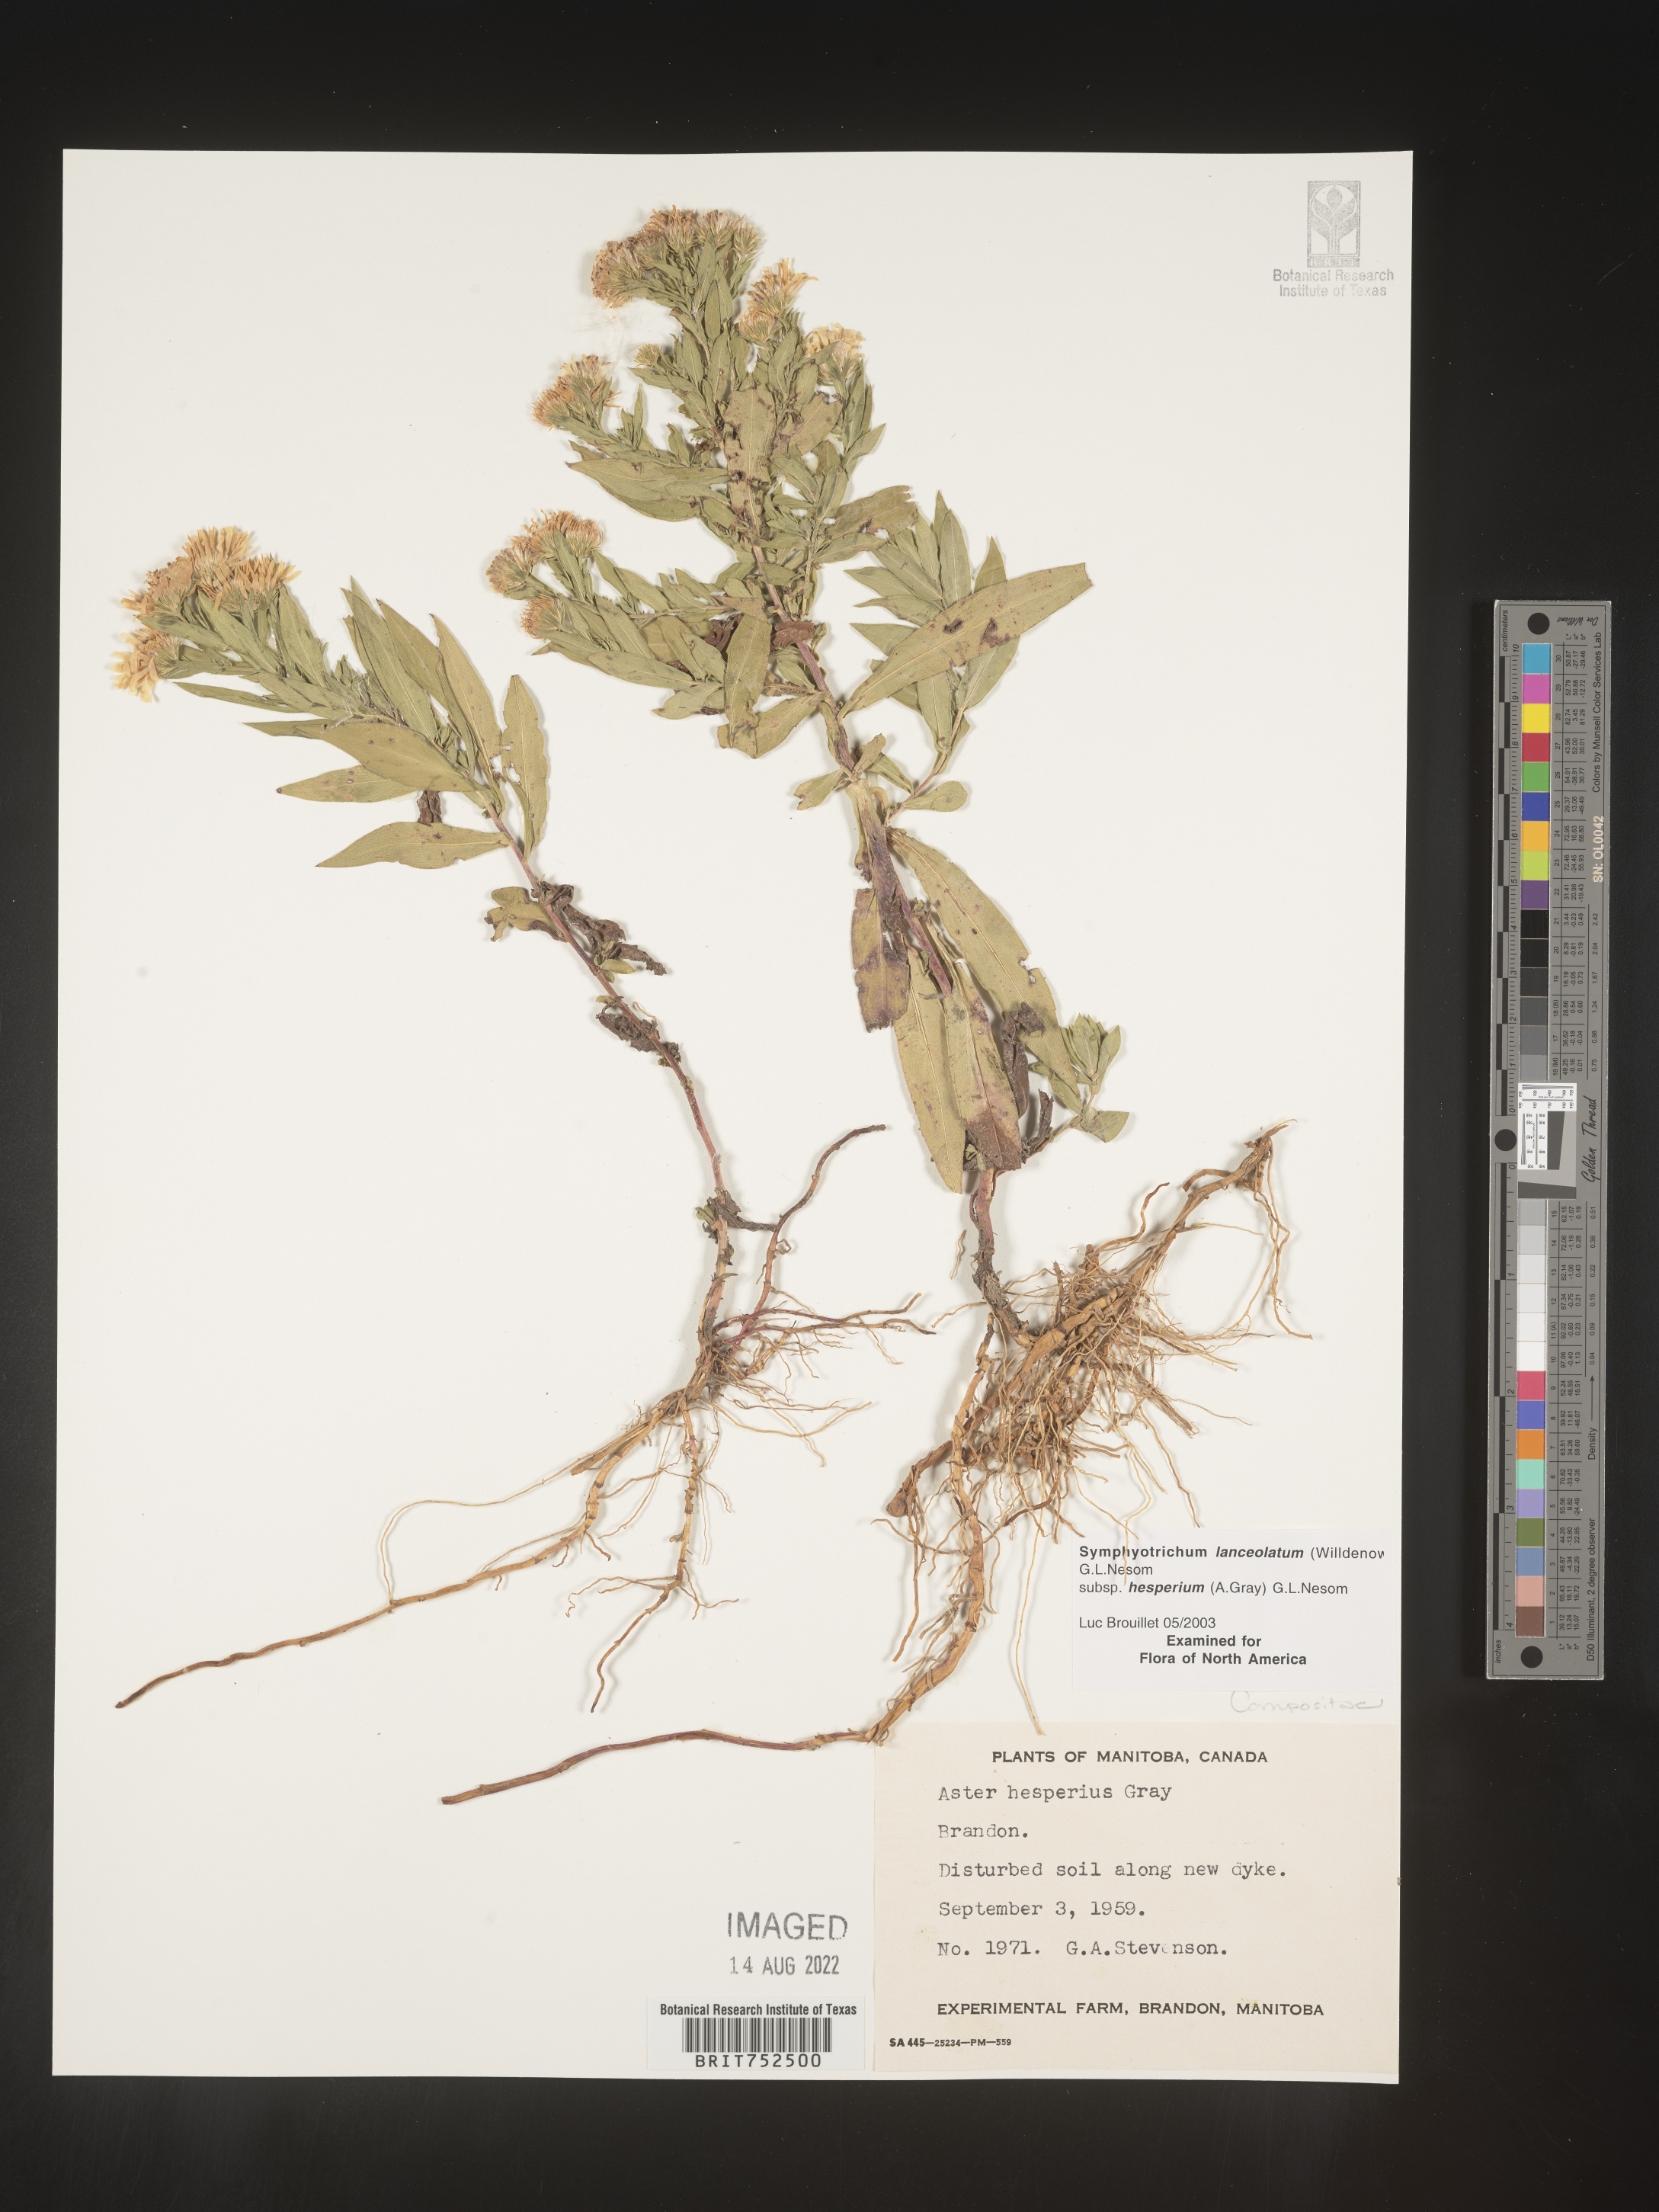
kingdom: Plantae
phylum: Tracheophyta
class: Magnoliopsida
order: Asterales
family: Asteraceae
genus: Symphyotrichum
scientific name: Symphyotrichum lanceolatum
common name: Panicled aster
